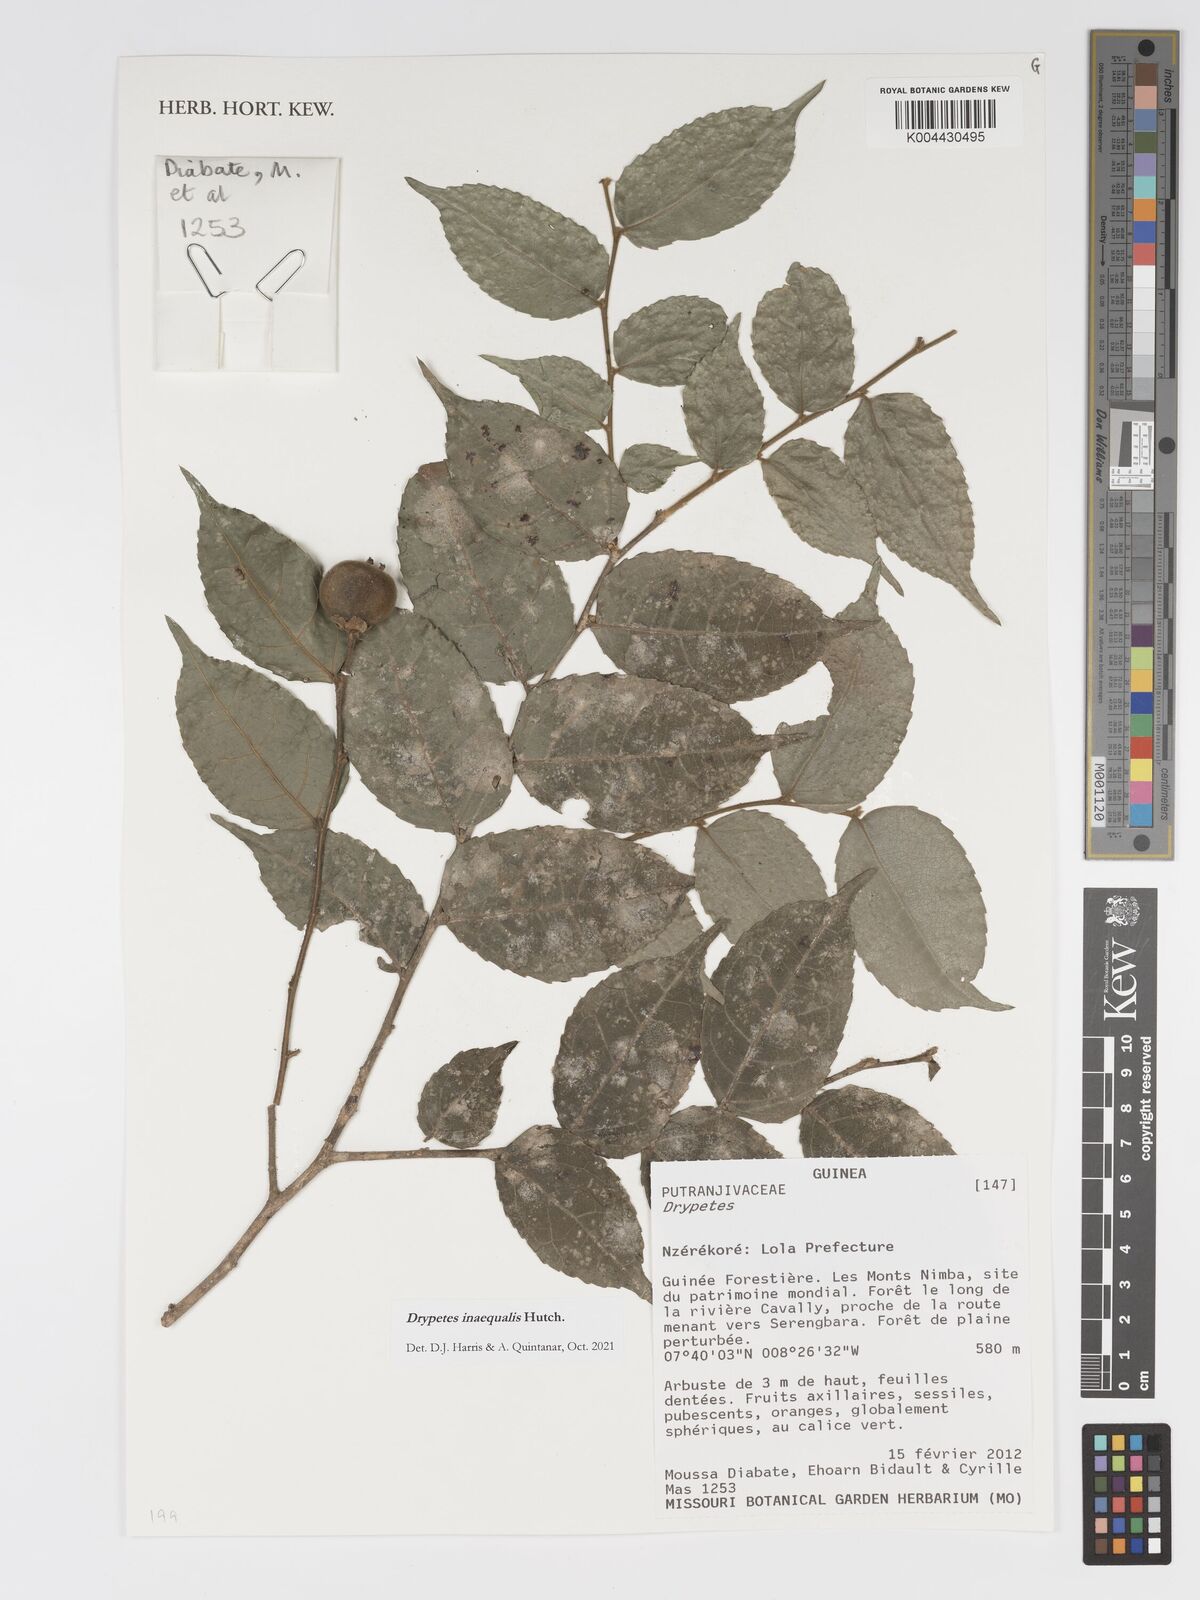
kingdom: Plantae
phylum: Tracheophyta
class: Magnoliopsida
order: Malpighiales
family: Putranjivaceae
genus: Drypetes
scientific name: Drypetes inaequalis
